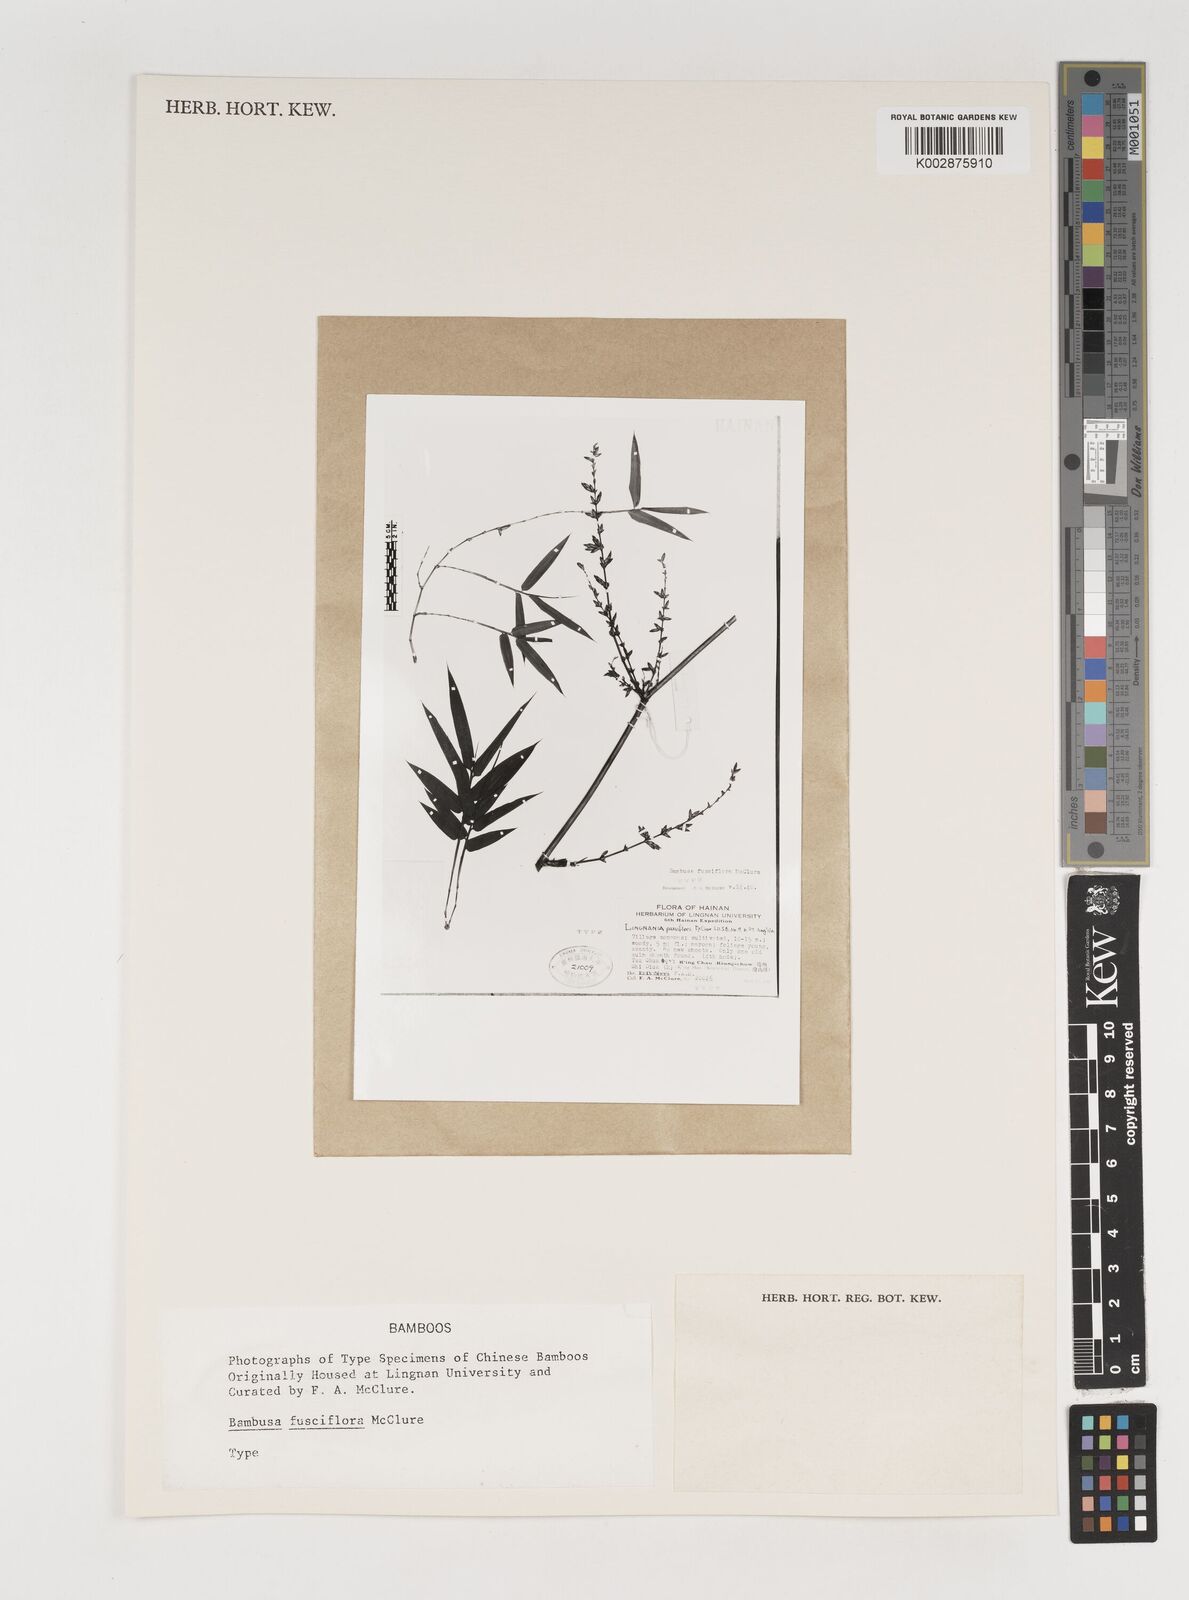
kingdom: Plantae
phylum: Tracheophyta
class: Liliopsida
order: Poales
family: Poaceae
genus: Bambusa
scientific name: Bambusa
